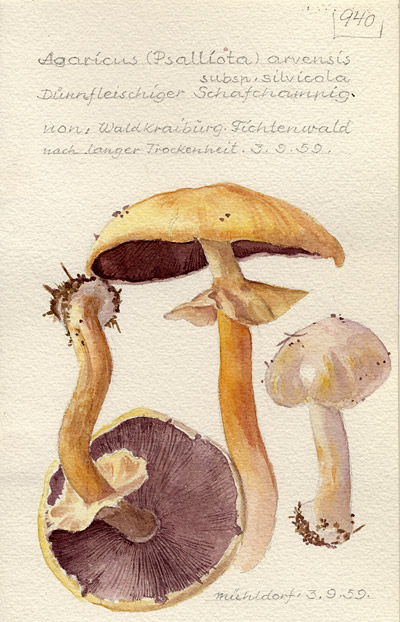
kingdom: Fungi
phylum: Basidiomycota
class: Agaricomycetes
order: Agaricales
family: Agaricaceae
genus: Agaricus
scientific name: Agaricus sylvicola
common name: Wood mushroom
